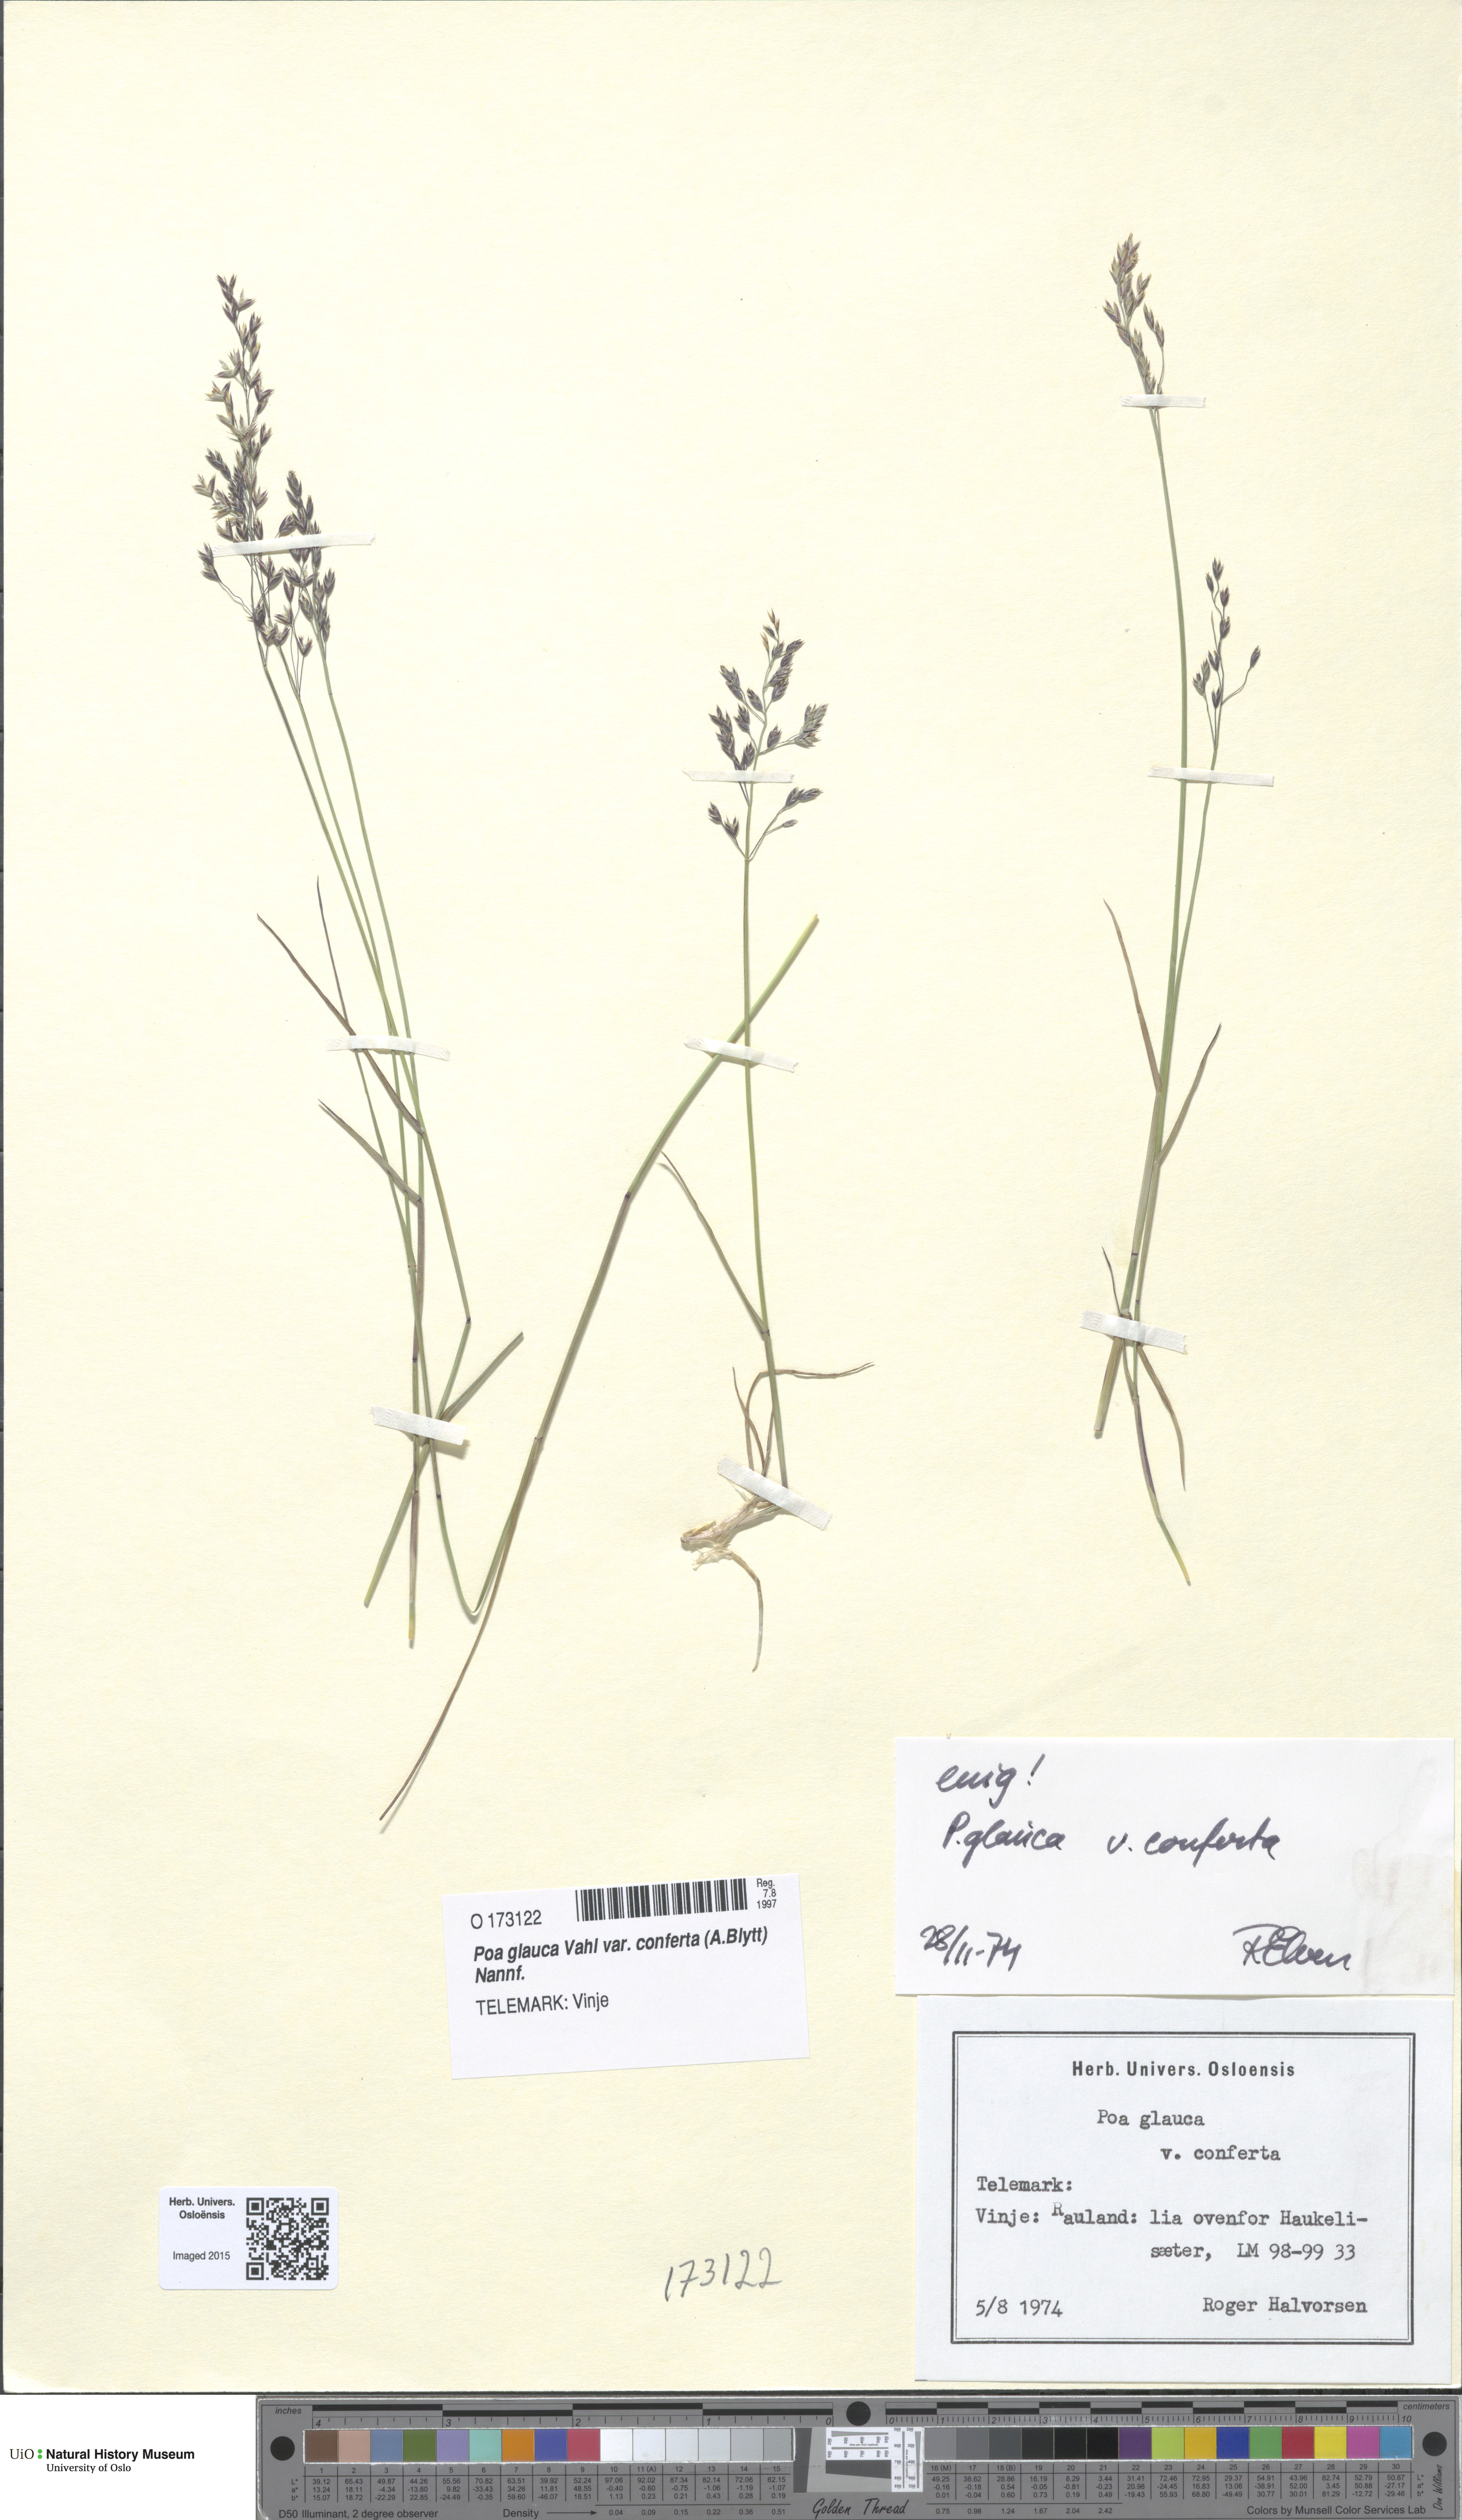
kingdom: Plantae
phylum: Tracheophyta
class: Liliopsida
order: Poales
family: Poaceae
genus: Poa
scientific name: Poa glauca
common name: Glaucous bluegrass
